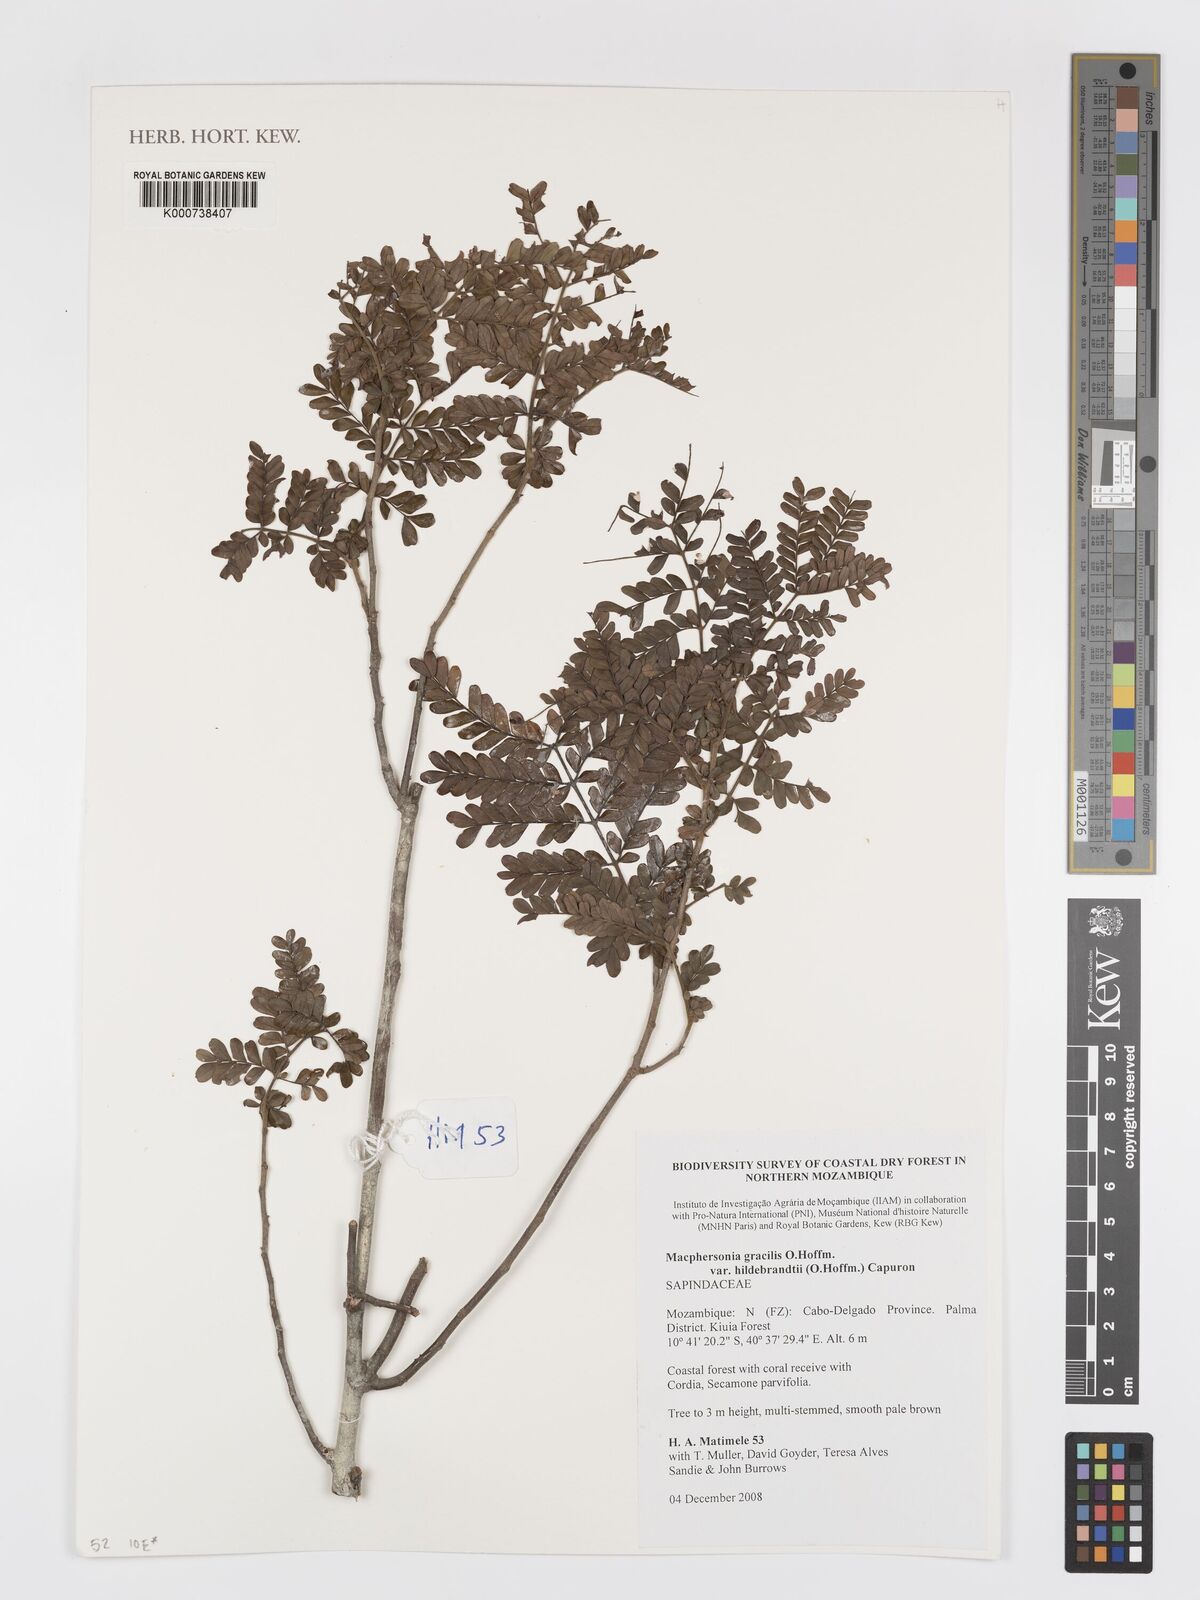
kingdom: Plantae
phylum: Tracheophyta
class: Magnoliopsida
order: Sapindales
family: Sapindaceae
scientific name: Sapindaceae
